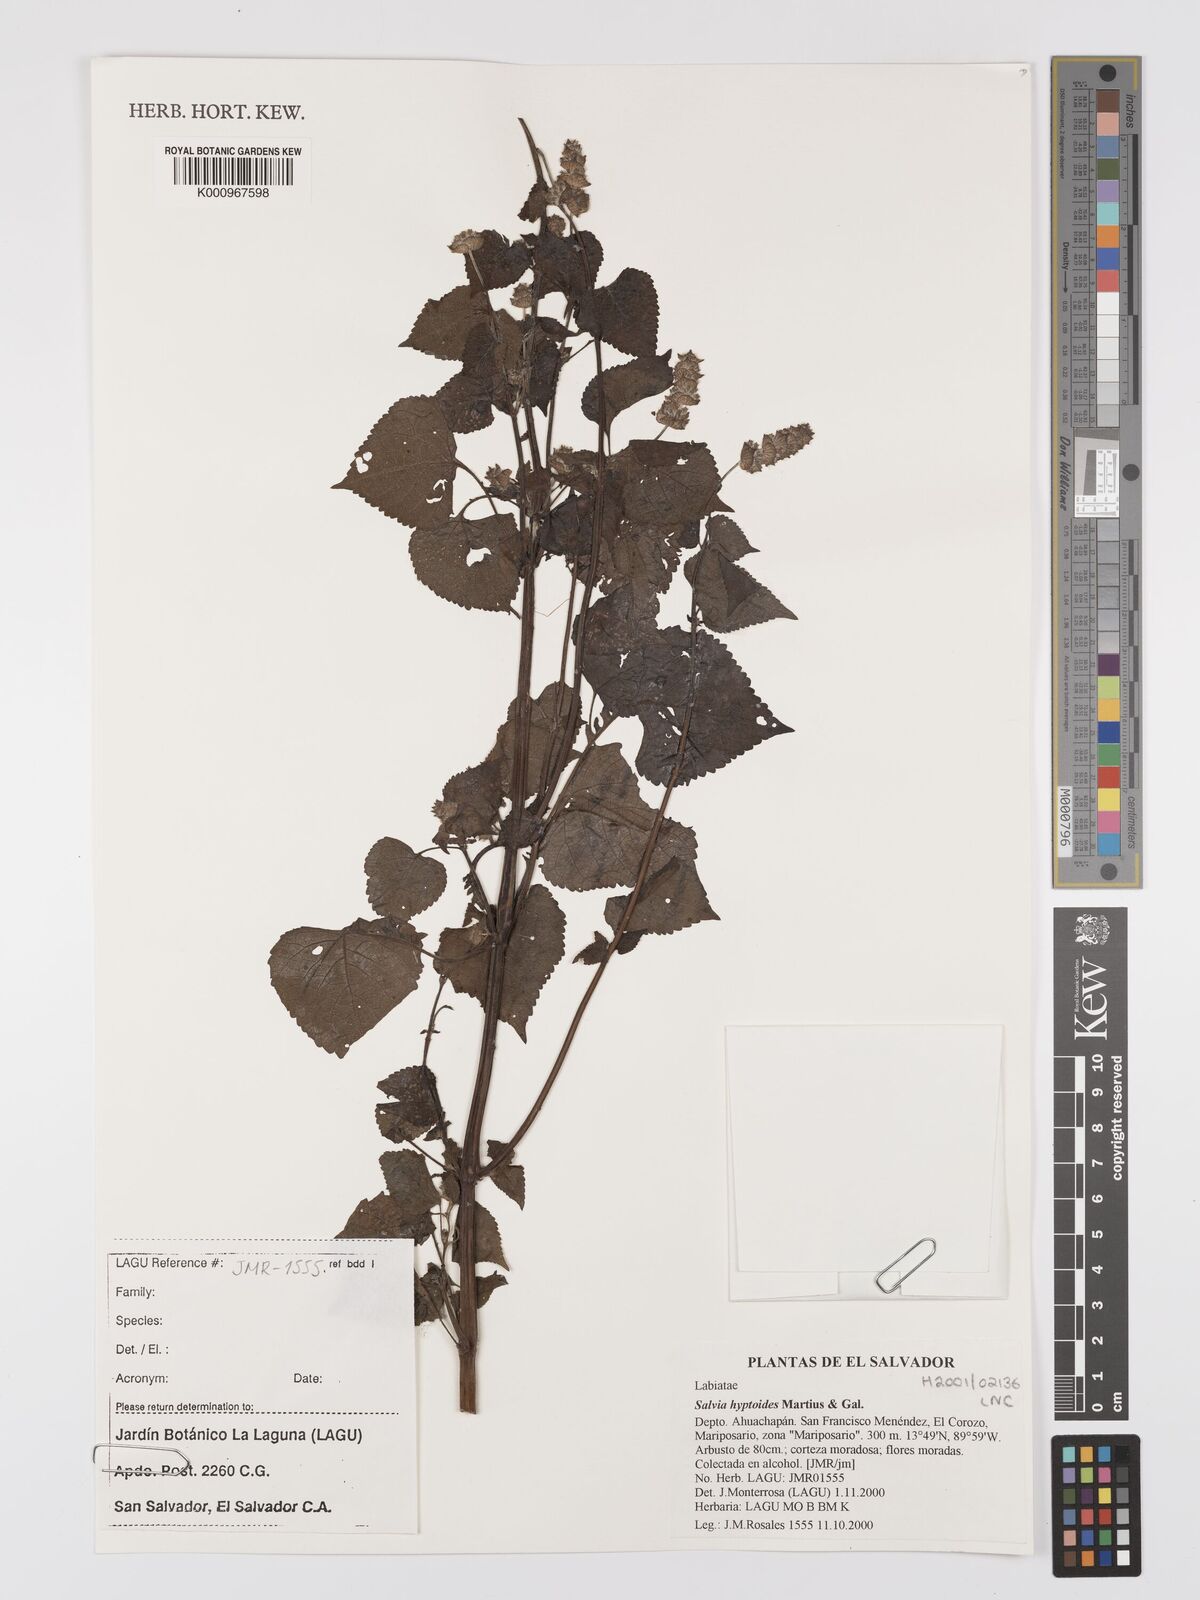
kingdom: Plantae
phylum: Tracheophyta
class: Magnoliopsida
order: Lamiales
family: Lamiaceae
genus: Salvia
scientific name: Salvia lasiocephala
